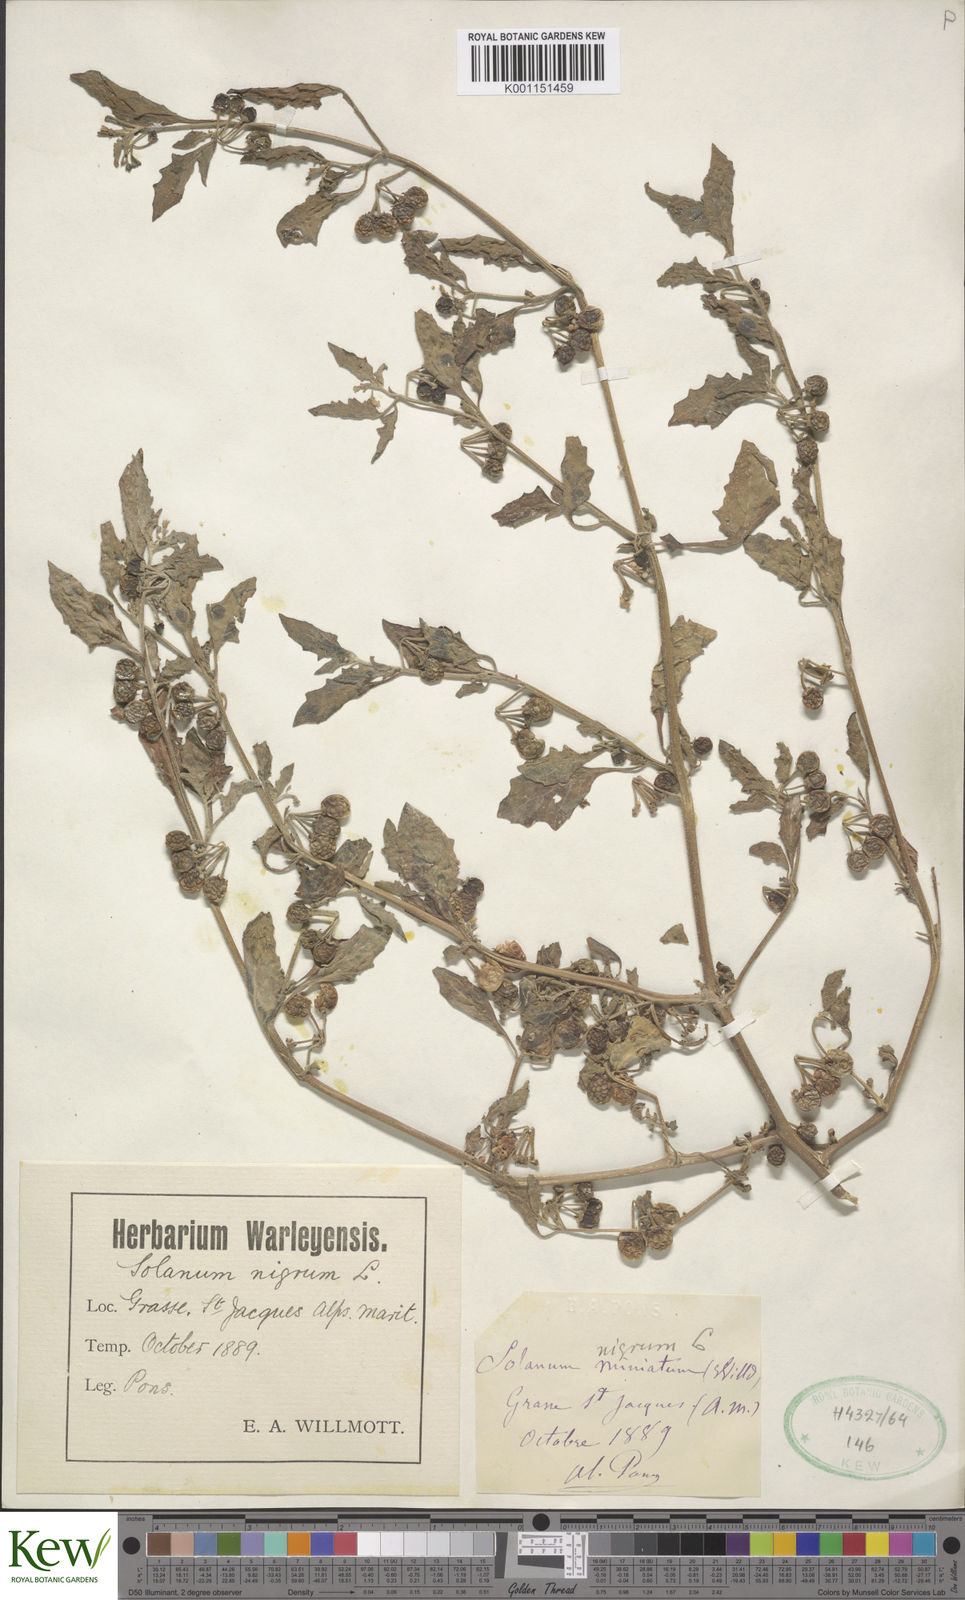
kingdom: Plantae
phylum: Tracheophyta
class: Magnoliopsida
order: Solanales
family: Solanaceae
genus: Solanum
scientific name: Solanum villosum
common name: Red nightshade
